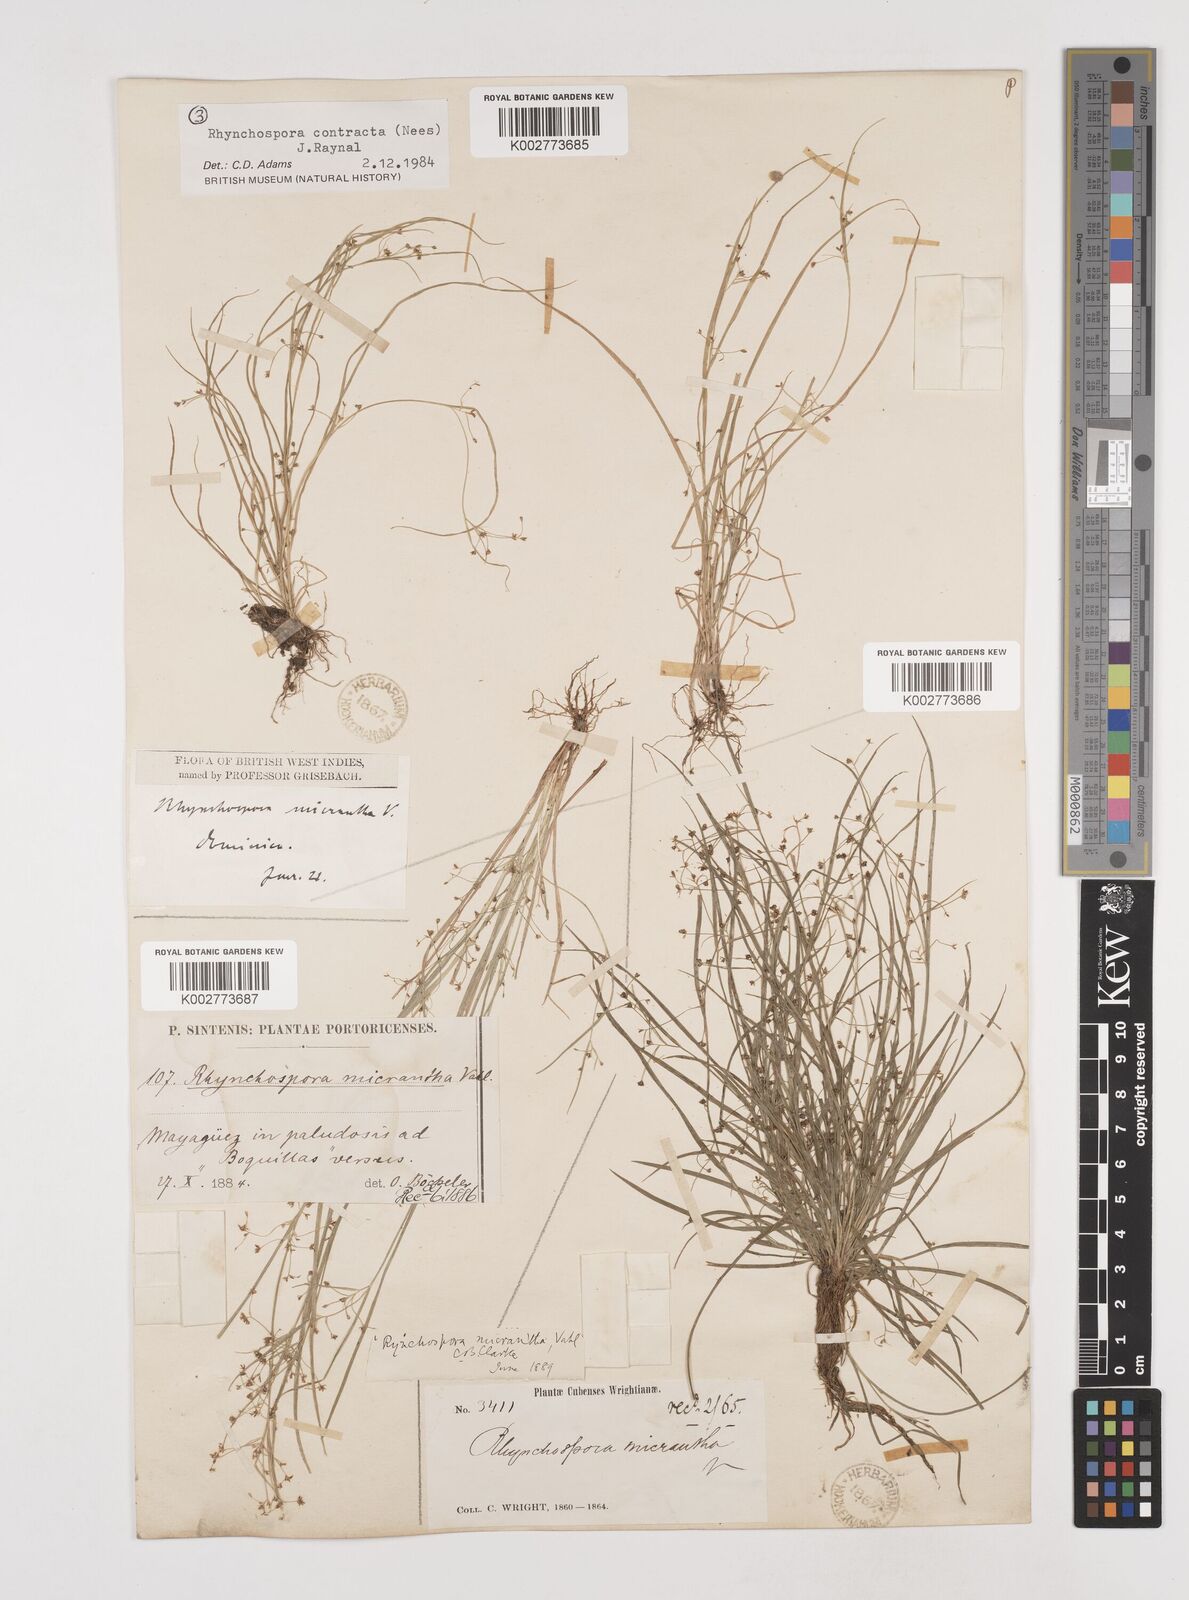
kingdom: Plantae
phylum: Tracheophyta
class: Liliopsida
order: Poales
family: Cyperaceae
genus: Rhynchospora
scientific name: Rhynchospora contracta
